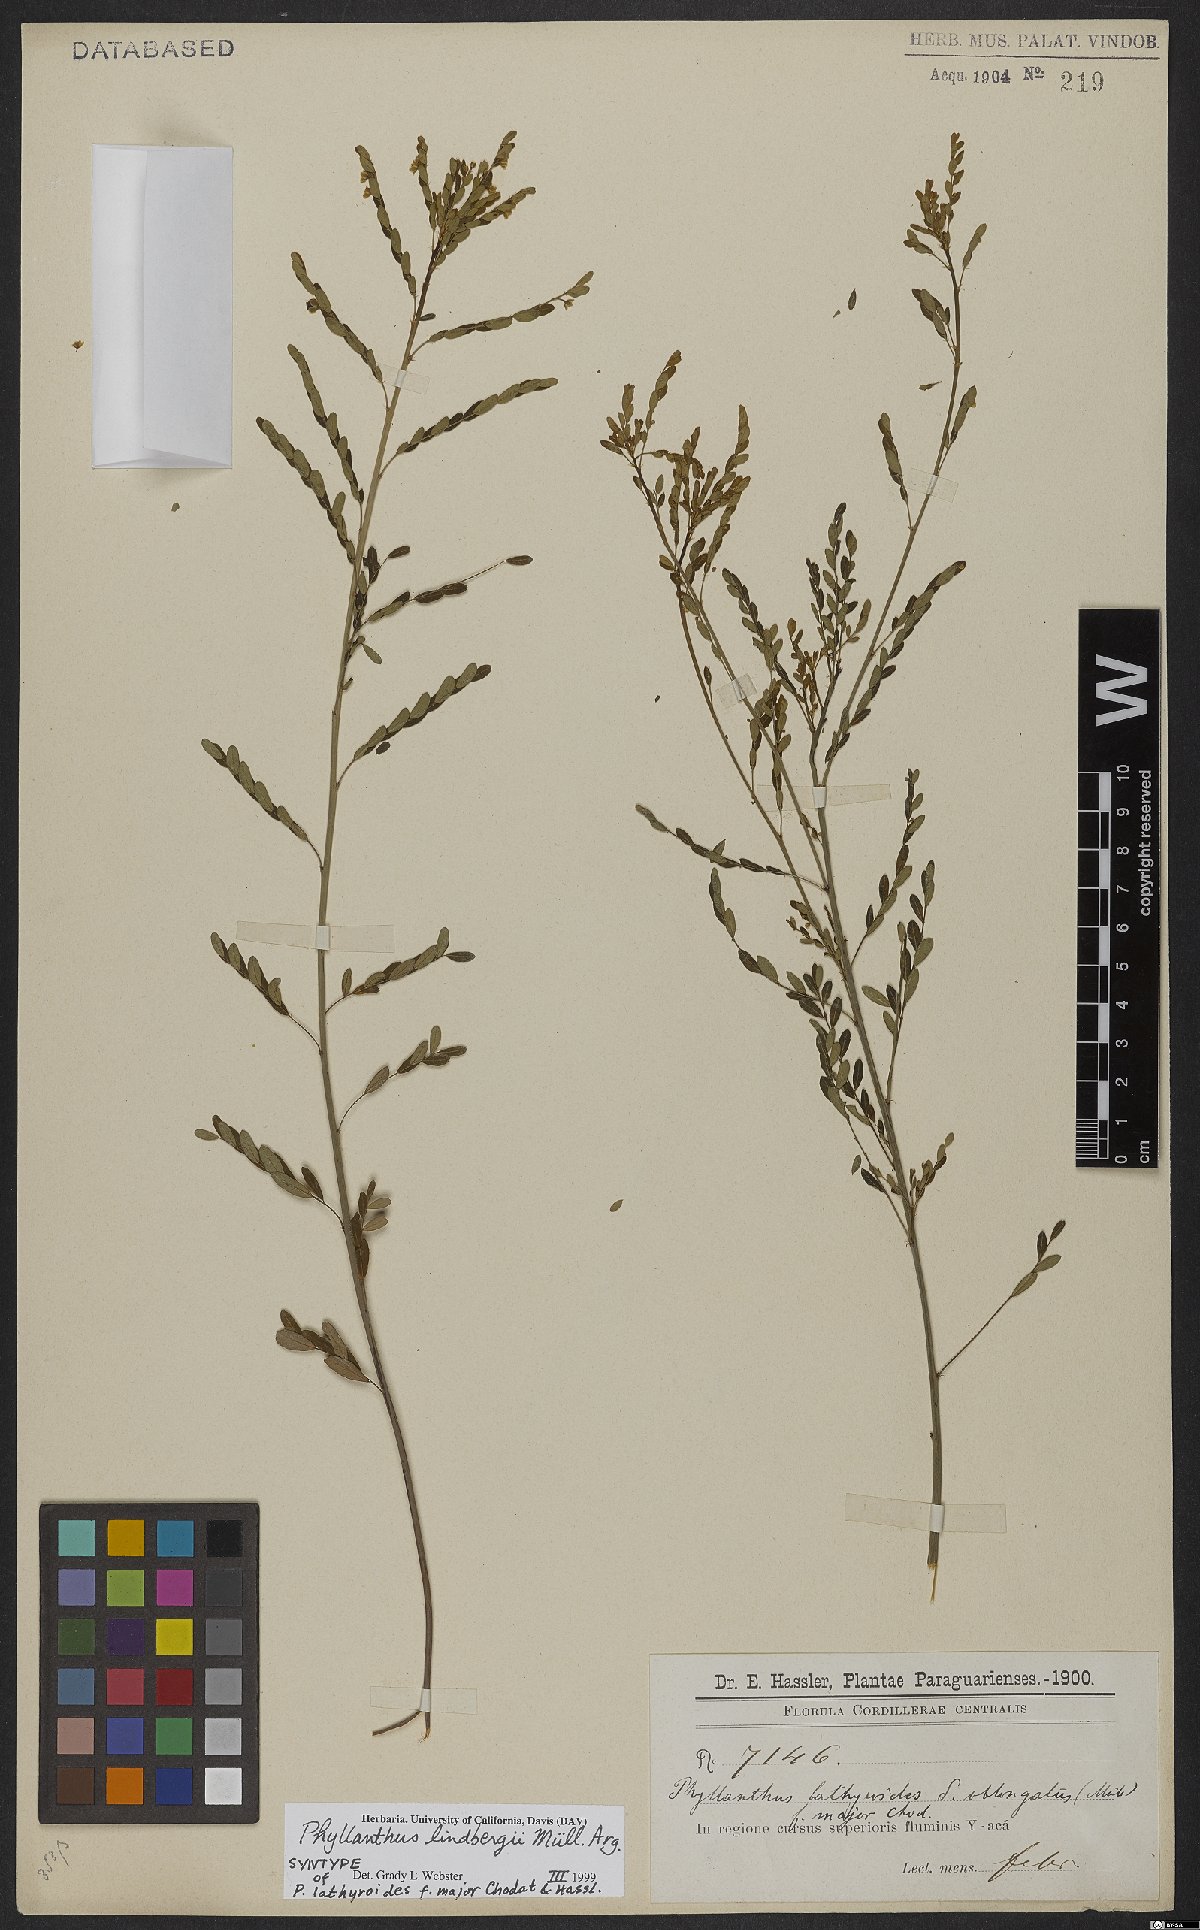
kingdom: Plantae
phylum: Tracheophyta
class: Magnoliopsida
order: Malpighiales
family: Phyllanthaceae
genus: Phyllanthus
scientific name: Phyllanthus lindbergii
